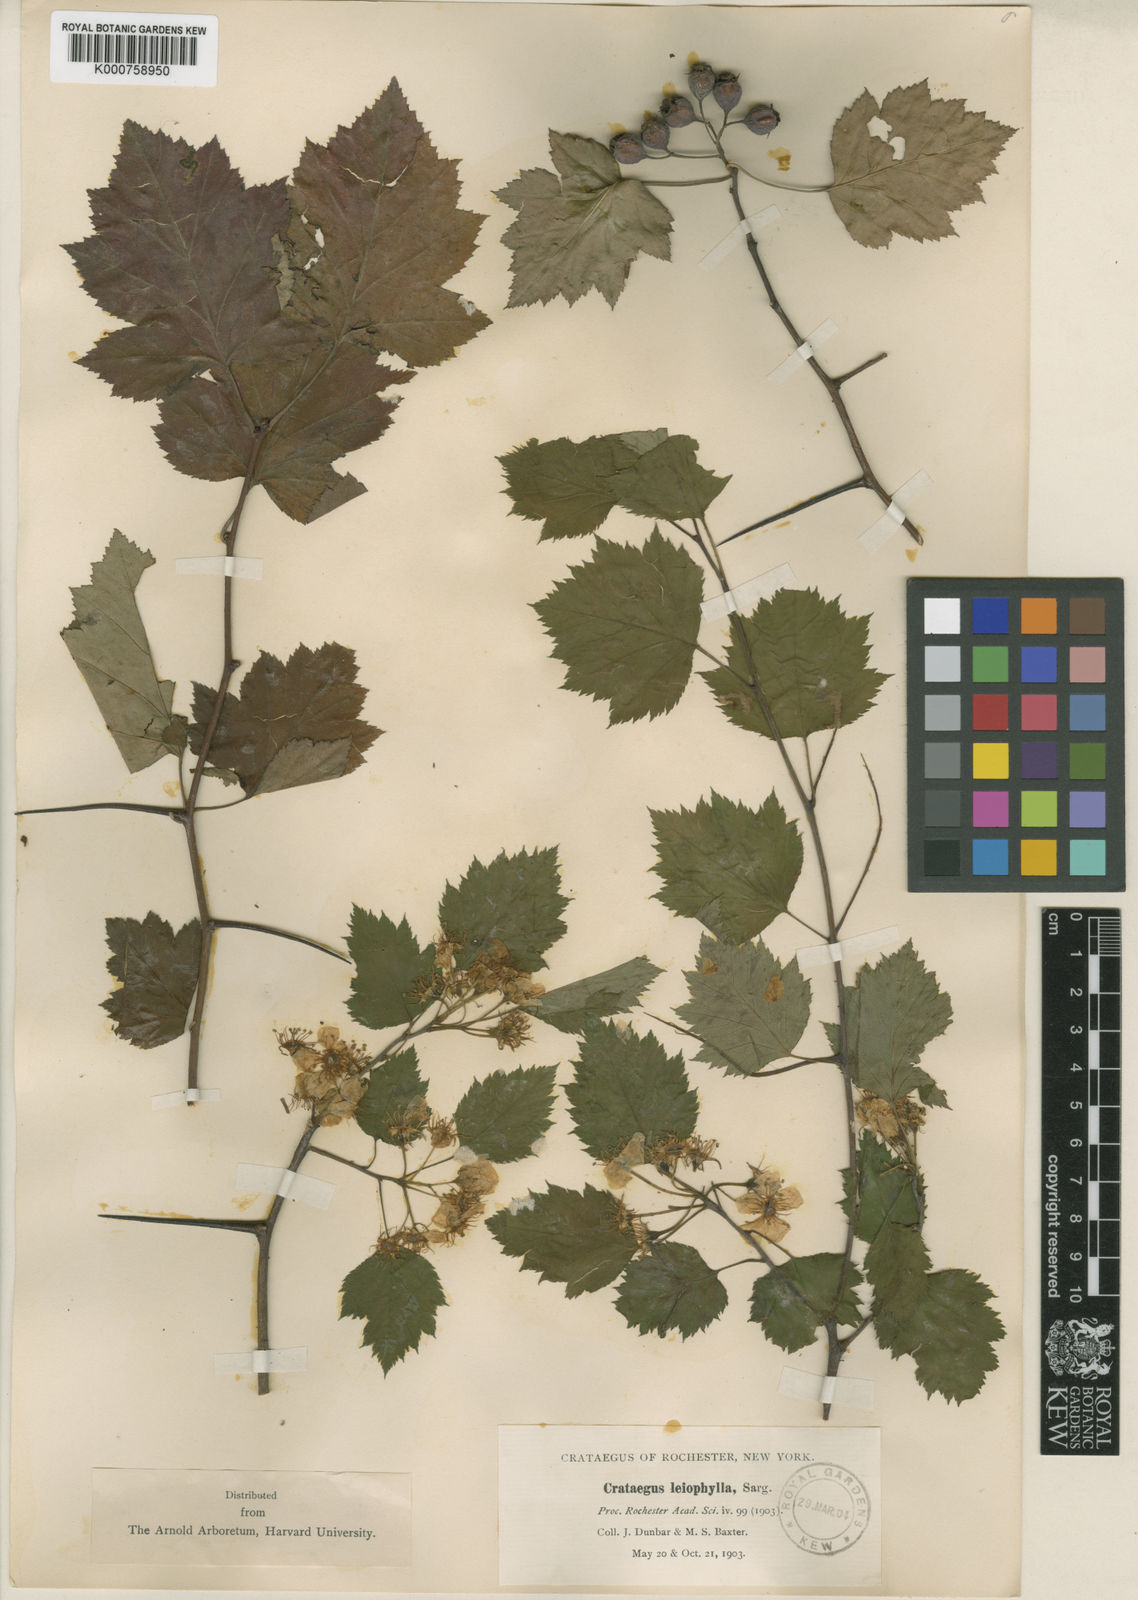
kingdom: Plantae
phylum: Tracheophyta
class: Magnoliopsida
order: Rosales
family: Rosaceae
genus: Crataegus
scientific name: Crataegus pruinosa
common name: Waxy-fruit hawthorn
